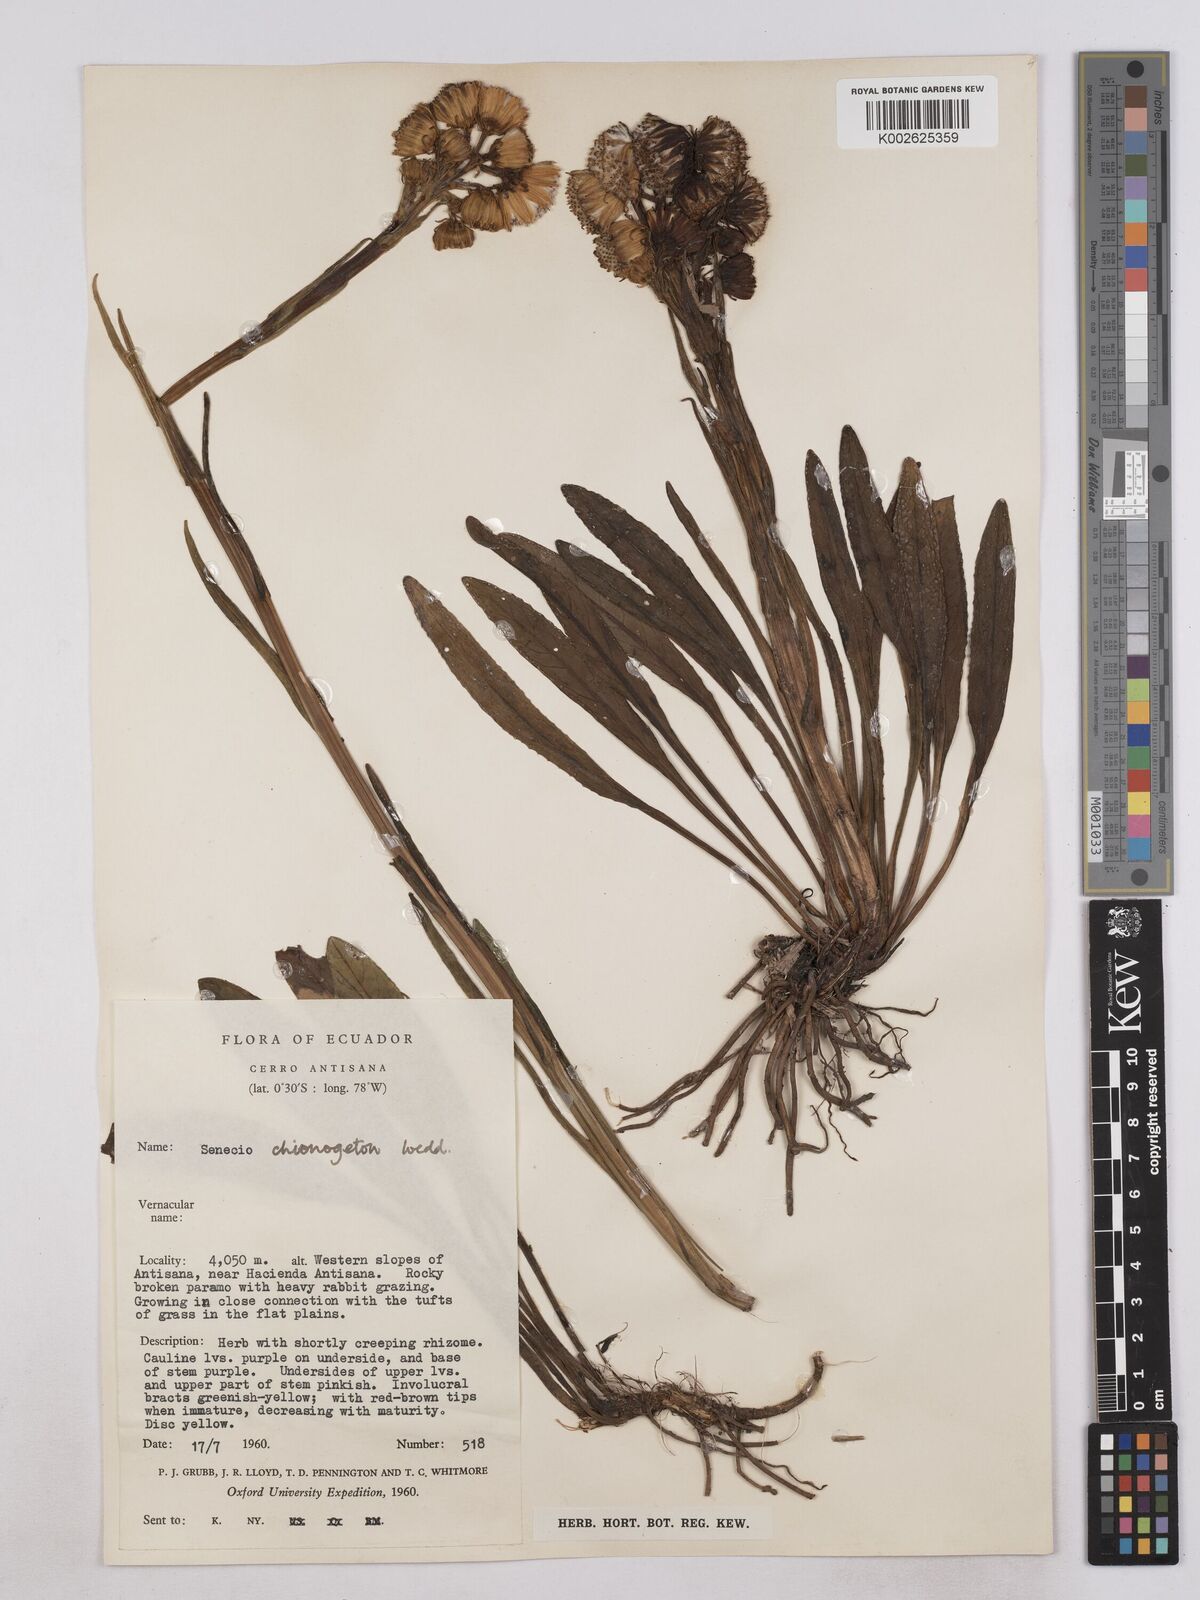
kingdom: Plantae
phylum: Tracheophyta
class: Magnoliopsida
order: Asterales
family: Asteraceae
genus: Senecio
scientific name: Senecio chionogeton
